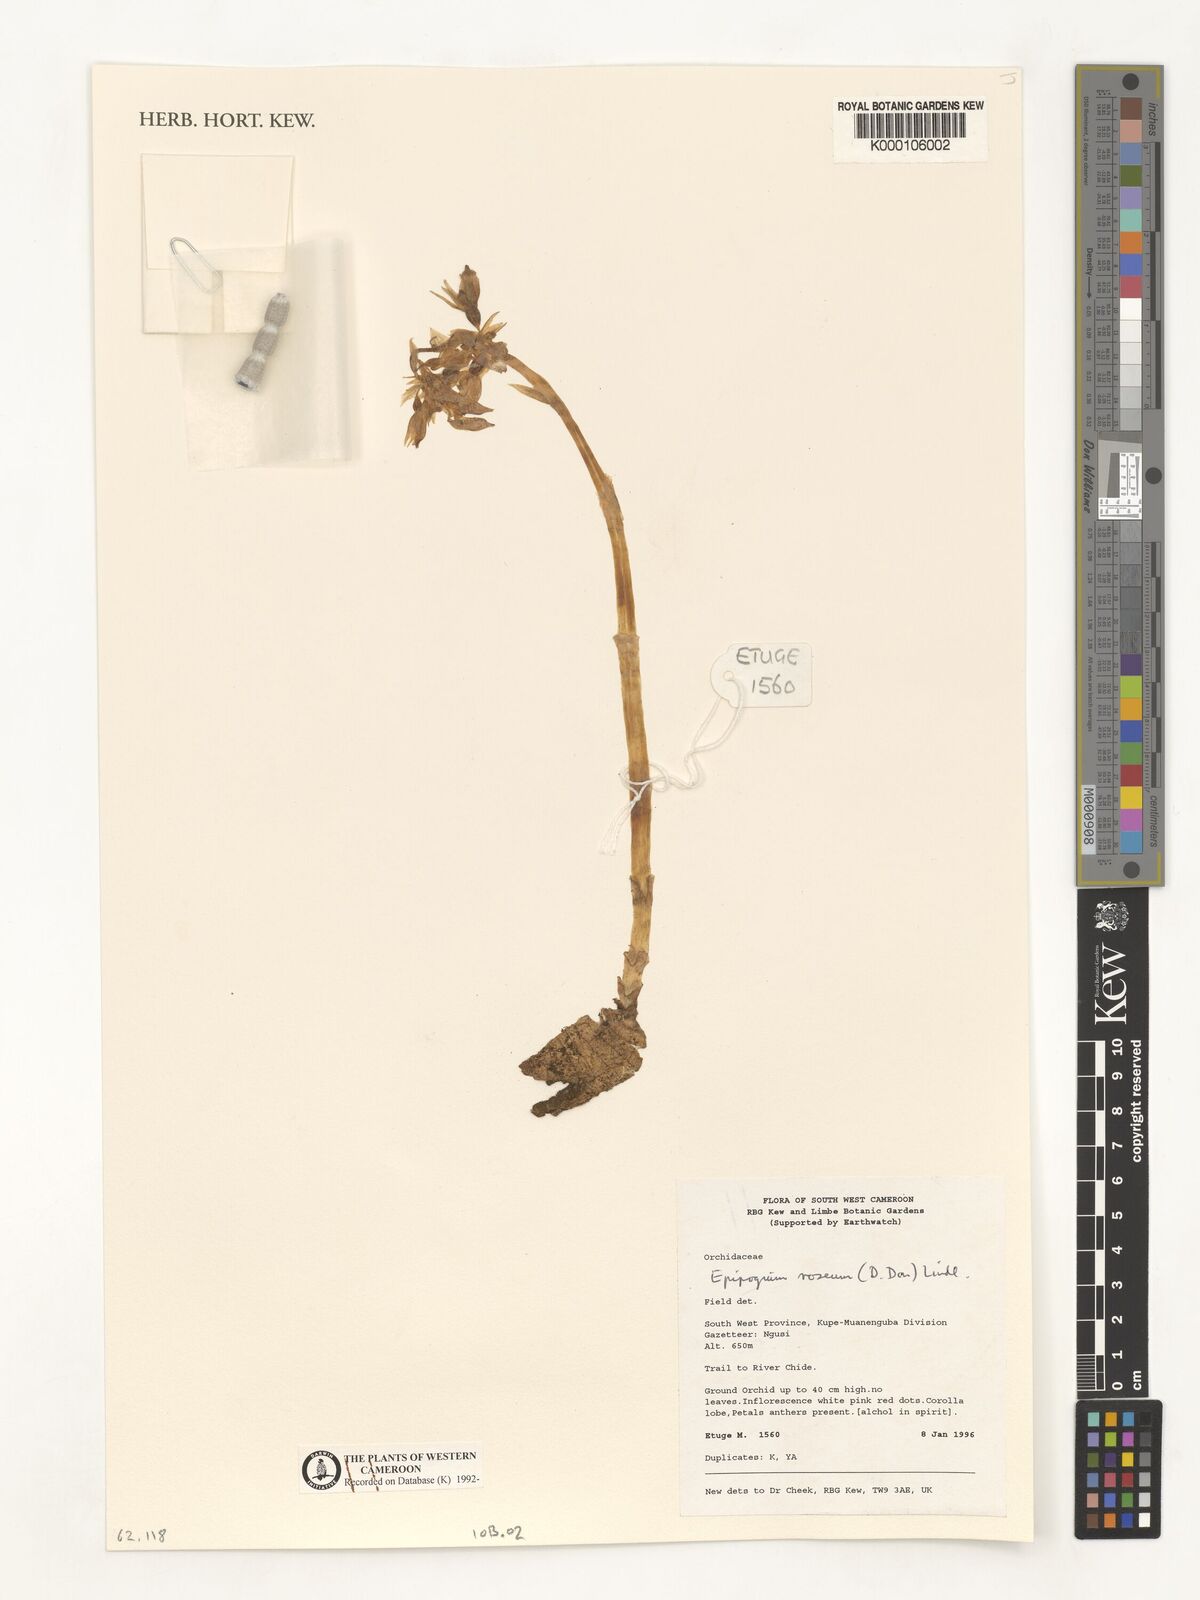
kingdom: Plantae
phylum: Tracheophyta
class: Liliopsida
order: Asparagales
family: Orchidaceae
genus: Epipogium
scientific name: Epipogium roseum
